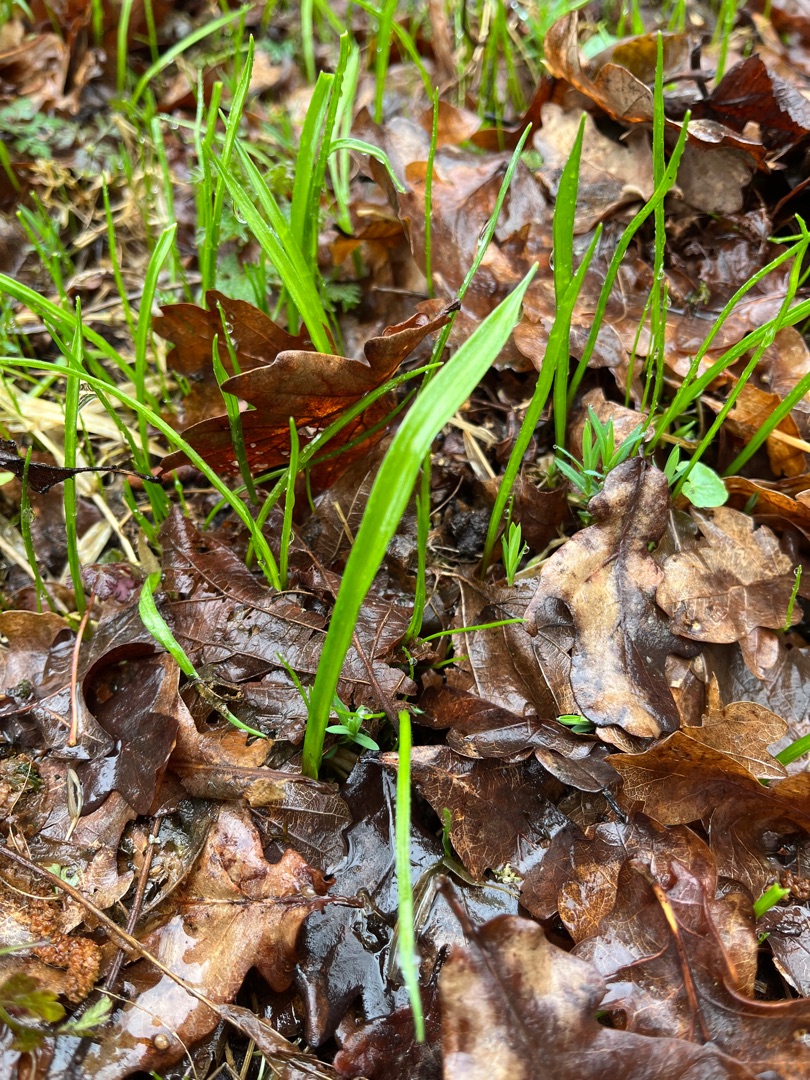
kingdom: Plantae
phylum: Tracheophyta
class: Liliopsida
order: Liliales
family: Liliaceae
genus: Gagea
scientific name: Gagea lutea
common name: Almindelig guldstjerne
